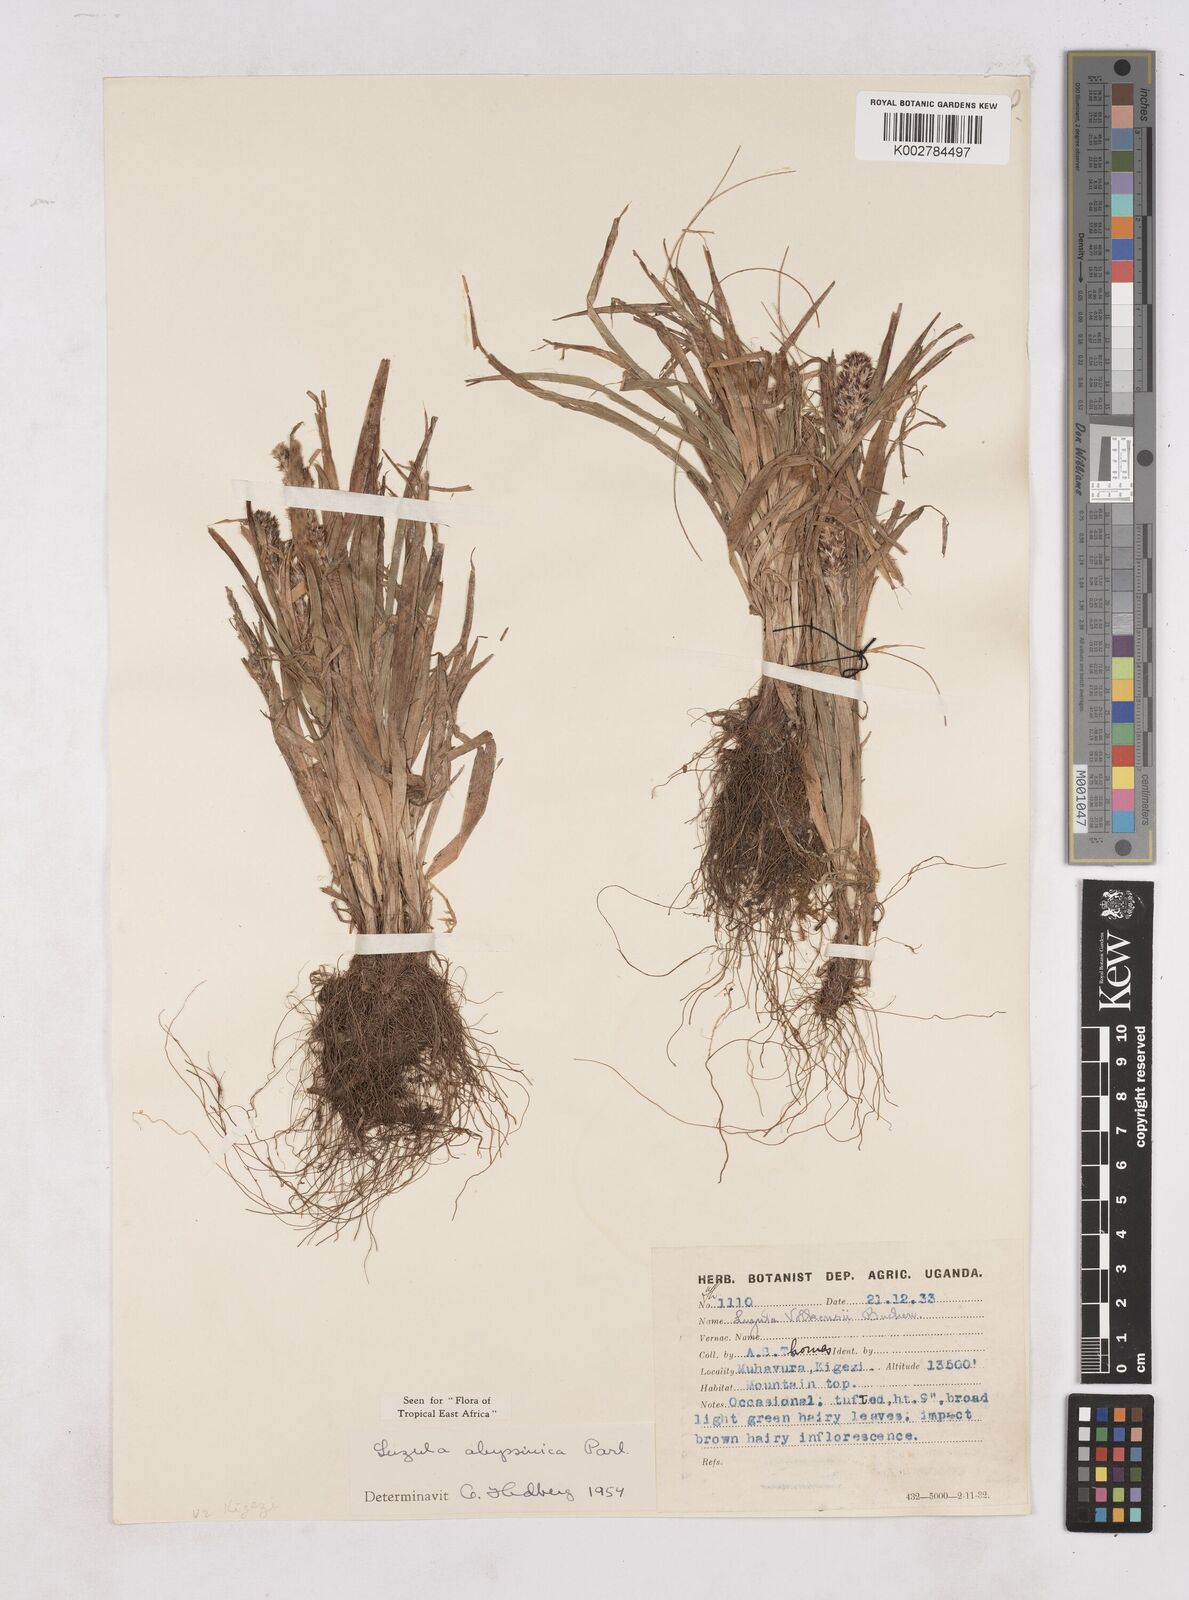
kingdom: Plantae
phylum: Tracheophyta
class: Liliopsida
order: Poales
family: Juncaceae
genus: Luzula
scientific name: Luzula abyssinica
